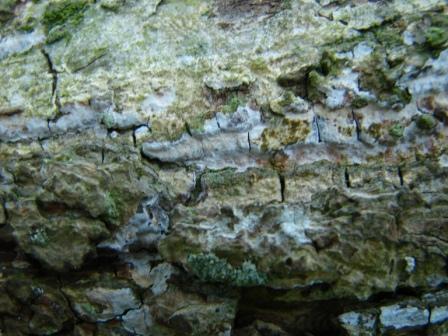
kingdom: Fungi
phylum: Basidiomycota
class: Agaricomycetes
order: Agaricales
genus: Dendrothele
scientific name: Dendrothele acerina
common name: navr-kalkplet
